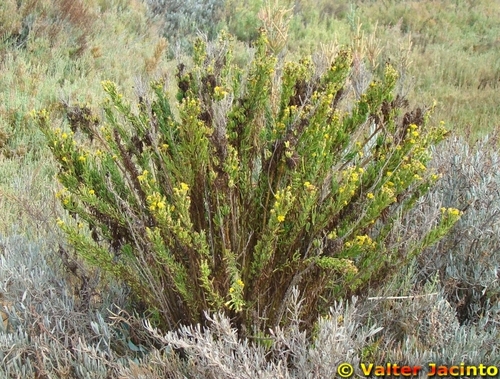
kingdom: Plantae
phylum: Tracheophyta
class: Magnoliopsida
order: Asterales
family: Asteraceae
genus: Limbarda
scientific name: Limbarda crithmoides
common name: Golden samphire
